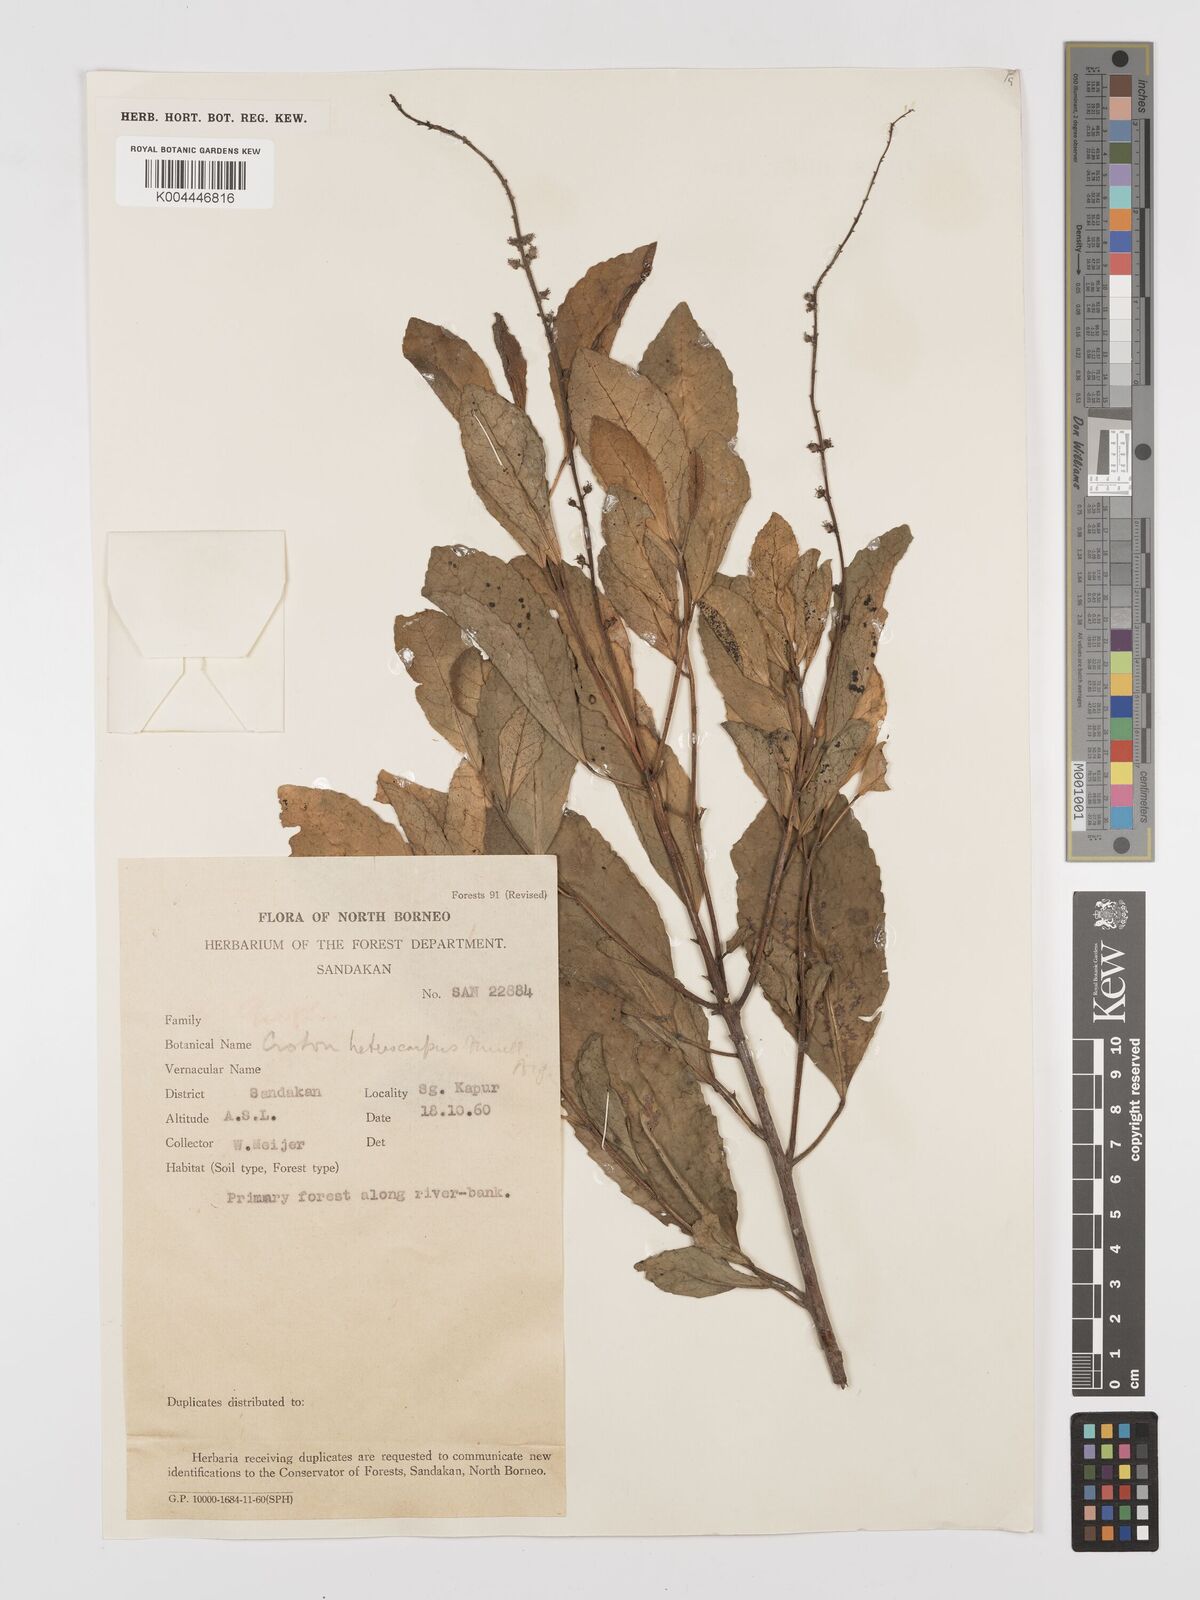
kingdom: Plantae
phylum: Tracheophyta
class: Magnoliopsida
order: Malpighiales
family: Euphorbiaceae
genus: Croton
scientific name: Croton heterocarpus
